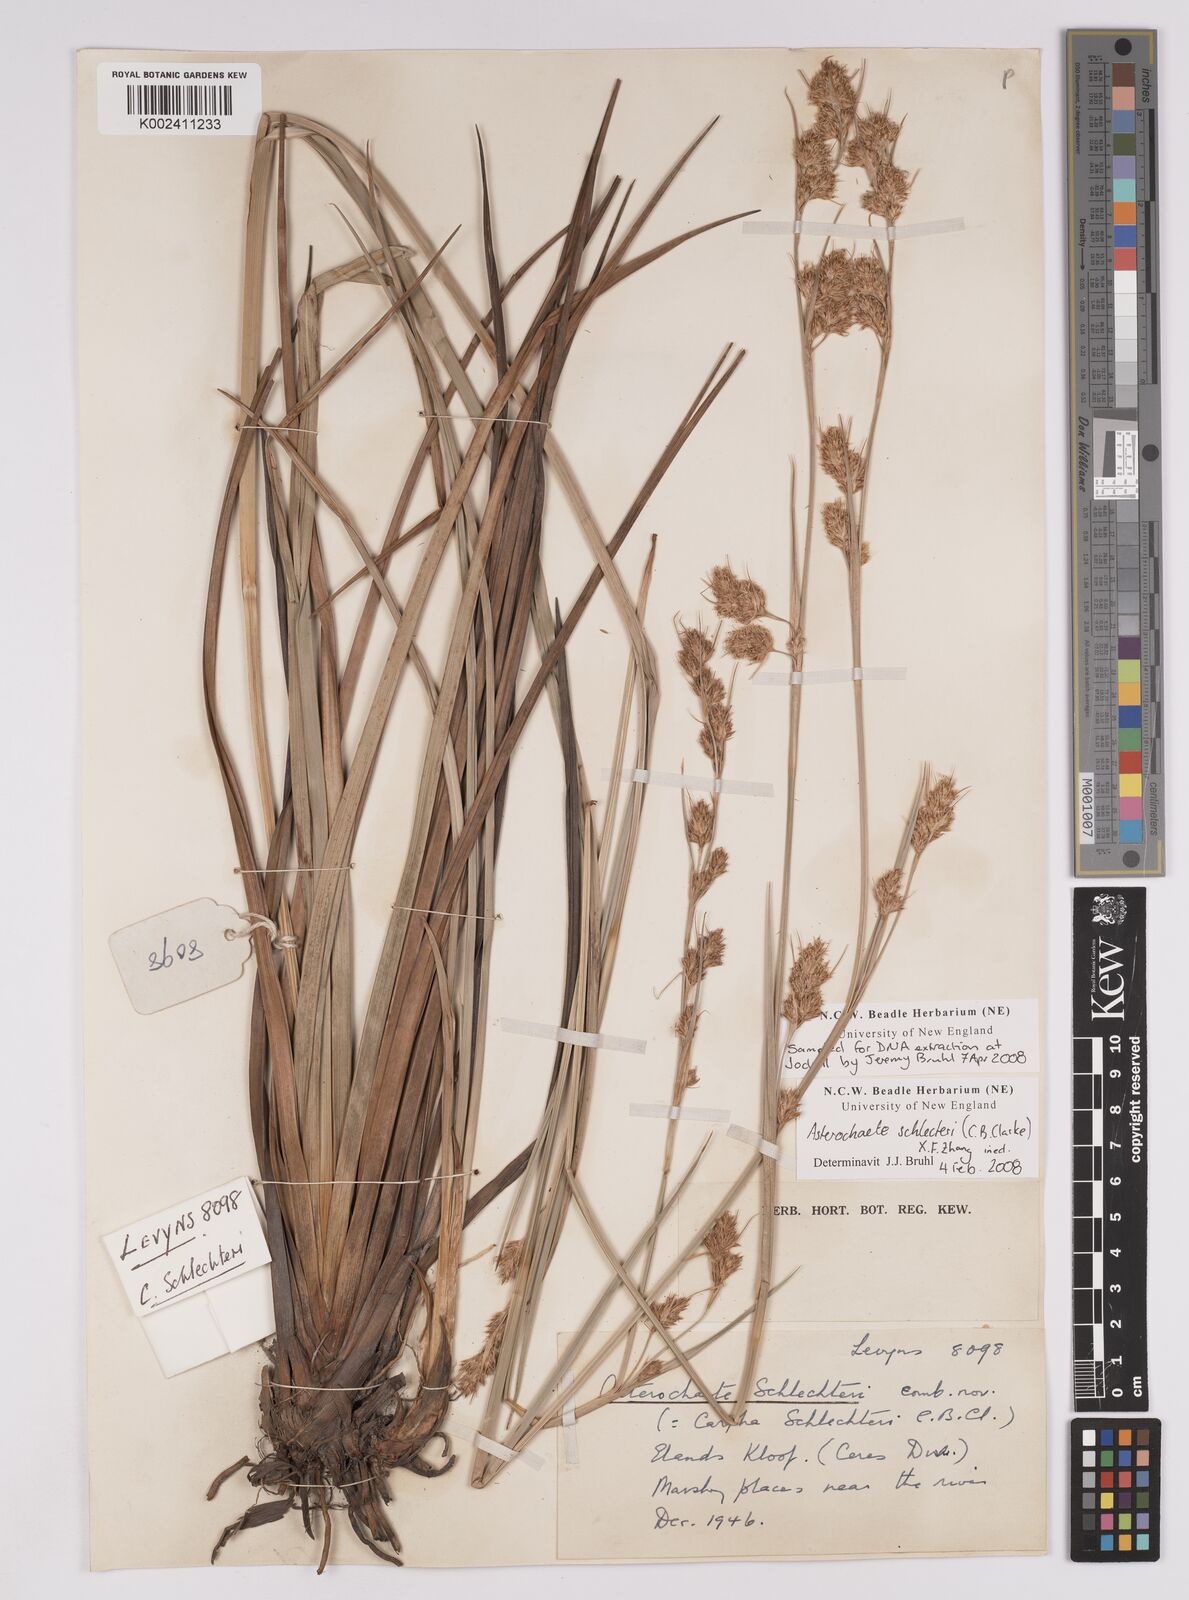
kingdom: Plantae
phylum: Tracheophyta
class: Liliopsida
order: Poales
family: Cyperaceae
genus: Carpha
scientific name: Carpha schlechteri
